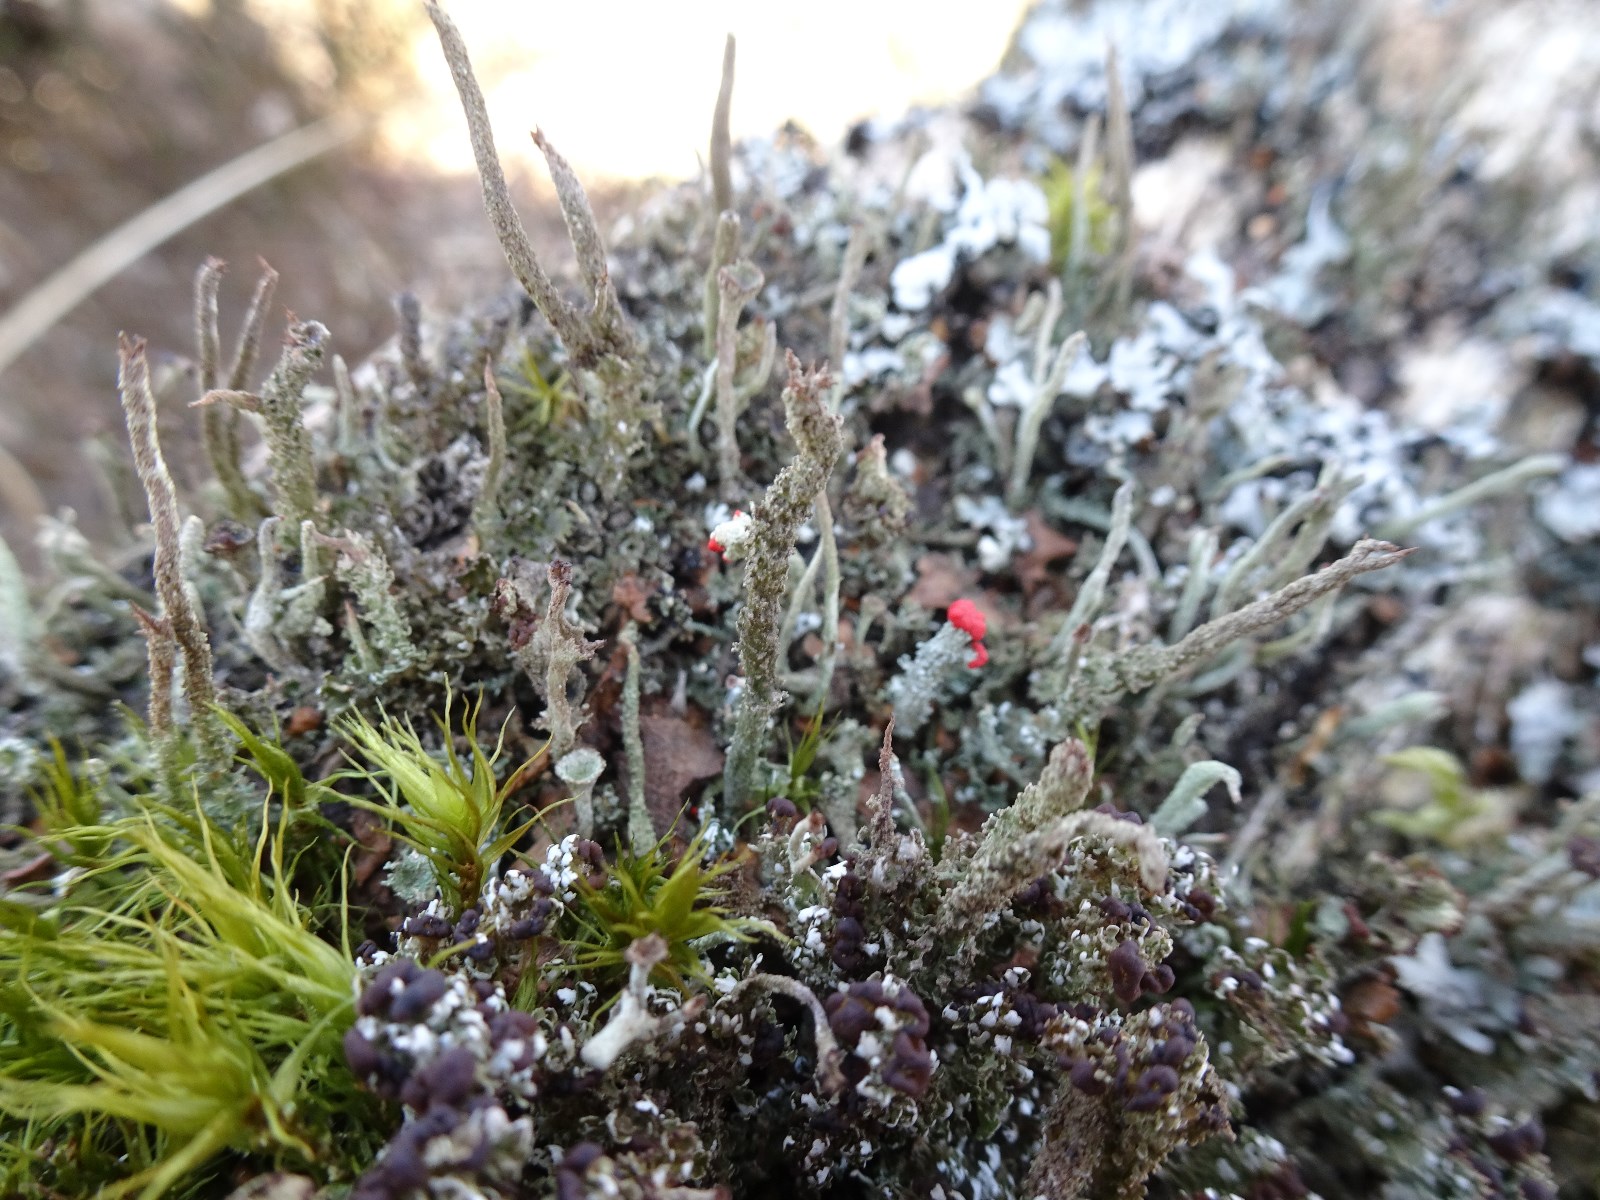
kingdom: Fungi
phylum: Ascomycota
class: Lecanoromycetes
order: Lecanorales
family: Cladoniaceae
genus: Cladonia
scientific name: Cladonia
